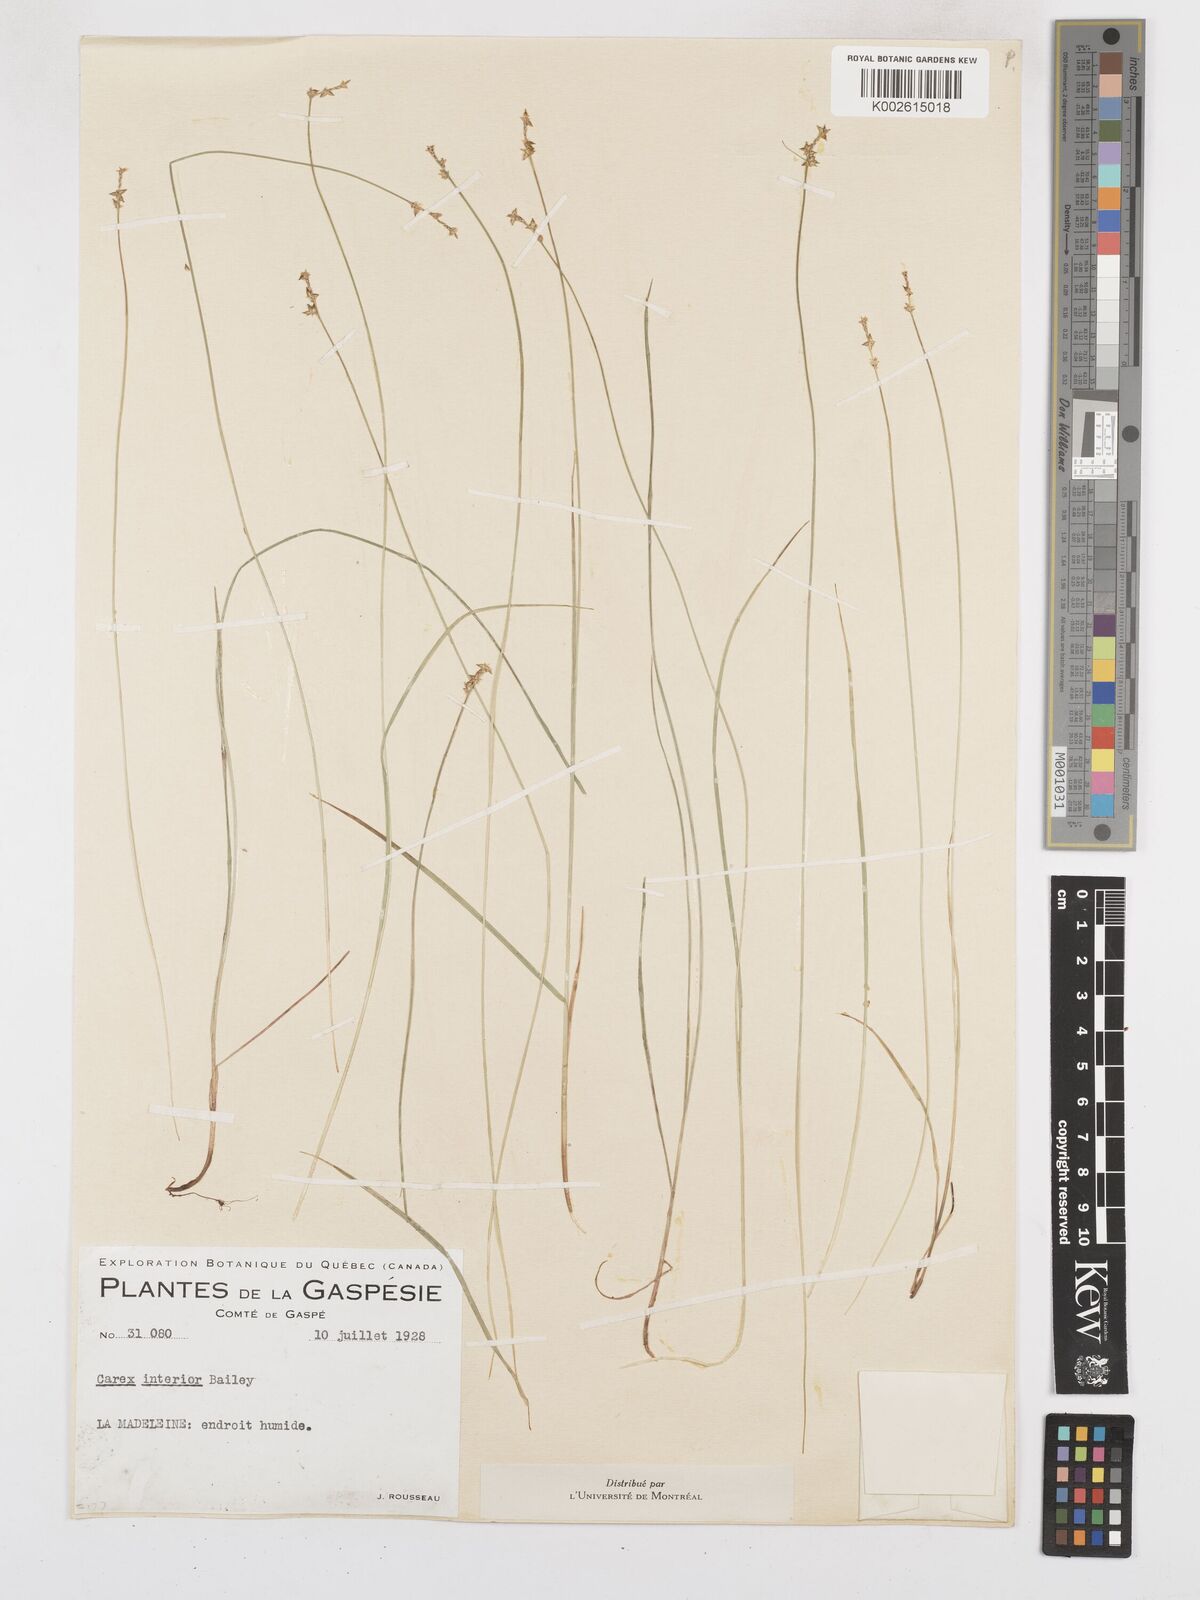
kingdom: Plantae
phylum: Tracheophyta
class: Liliopsida
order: Poales
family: Cyperaceae
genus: Carex
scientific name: Carex interior
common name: Inland sedge
